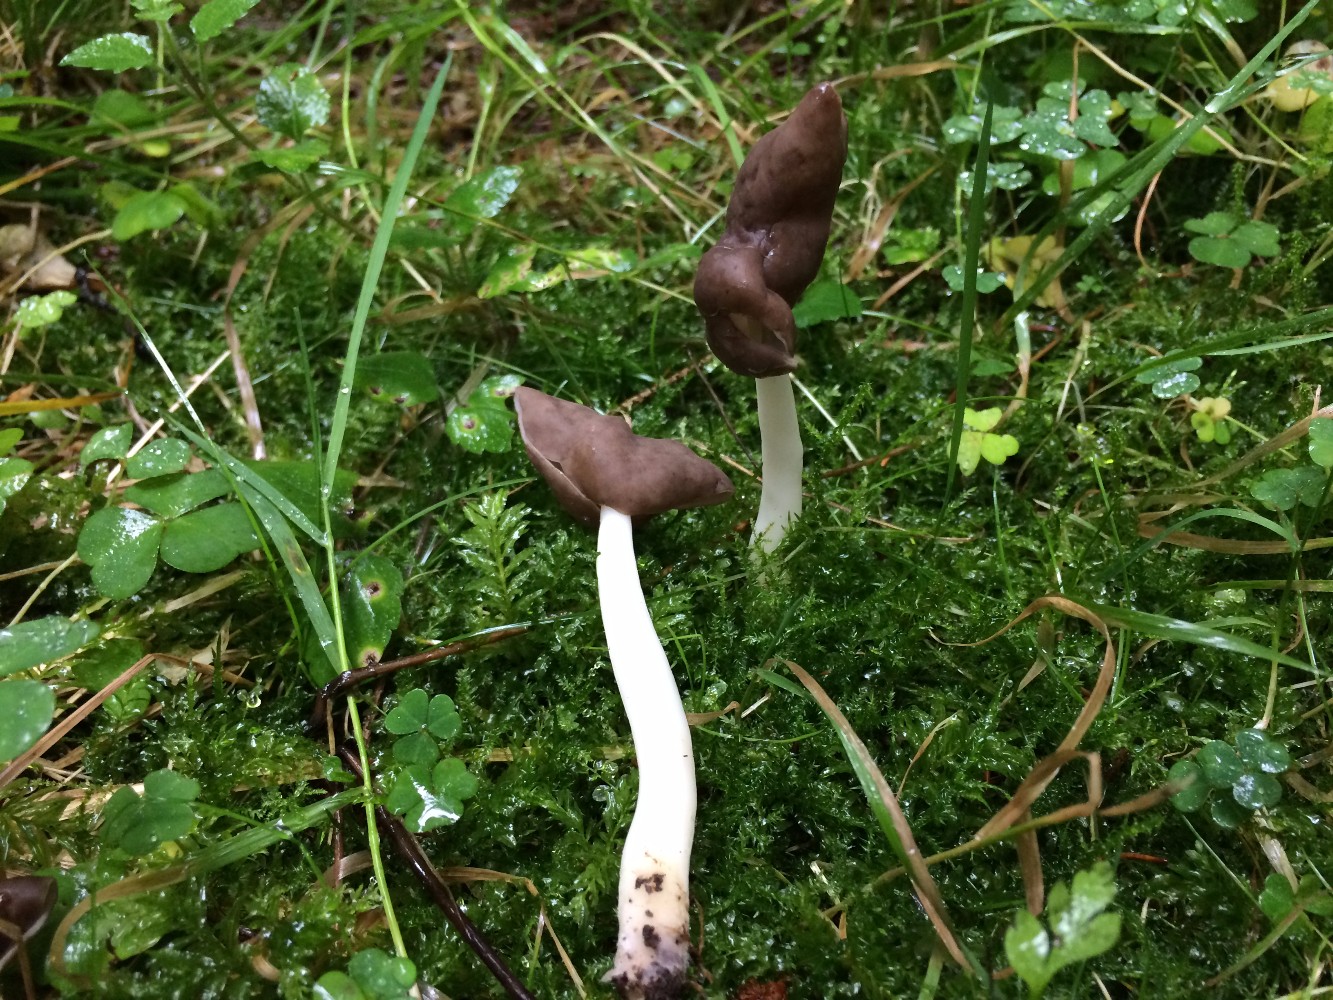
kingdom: Fungi
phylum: Ascomycota
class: Pezizomycetes
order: Pezizales
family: Helvellaceae
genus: Helvella
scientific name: Helvella elastica
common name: elastik-foldhat
